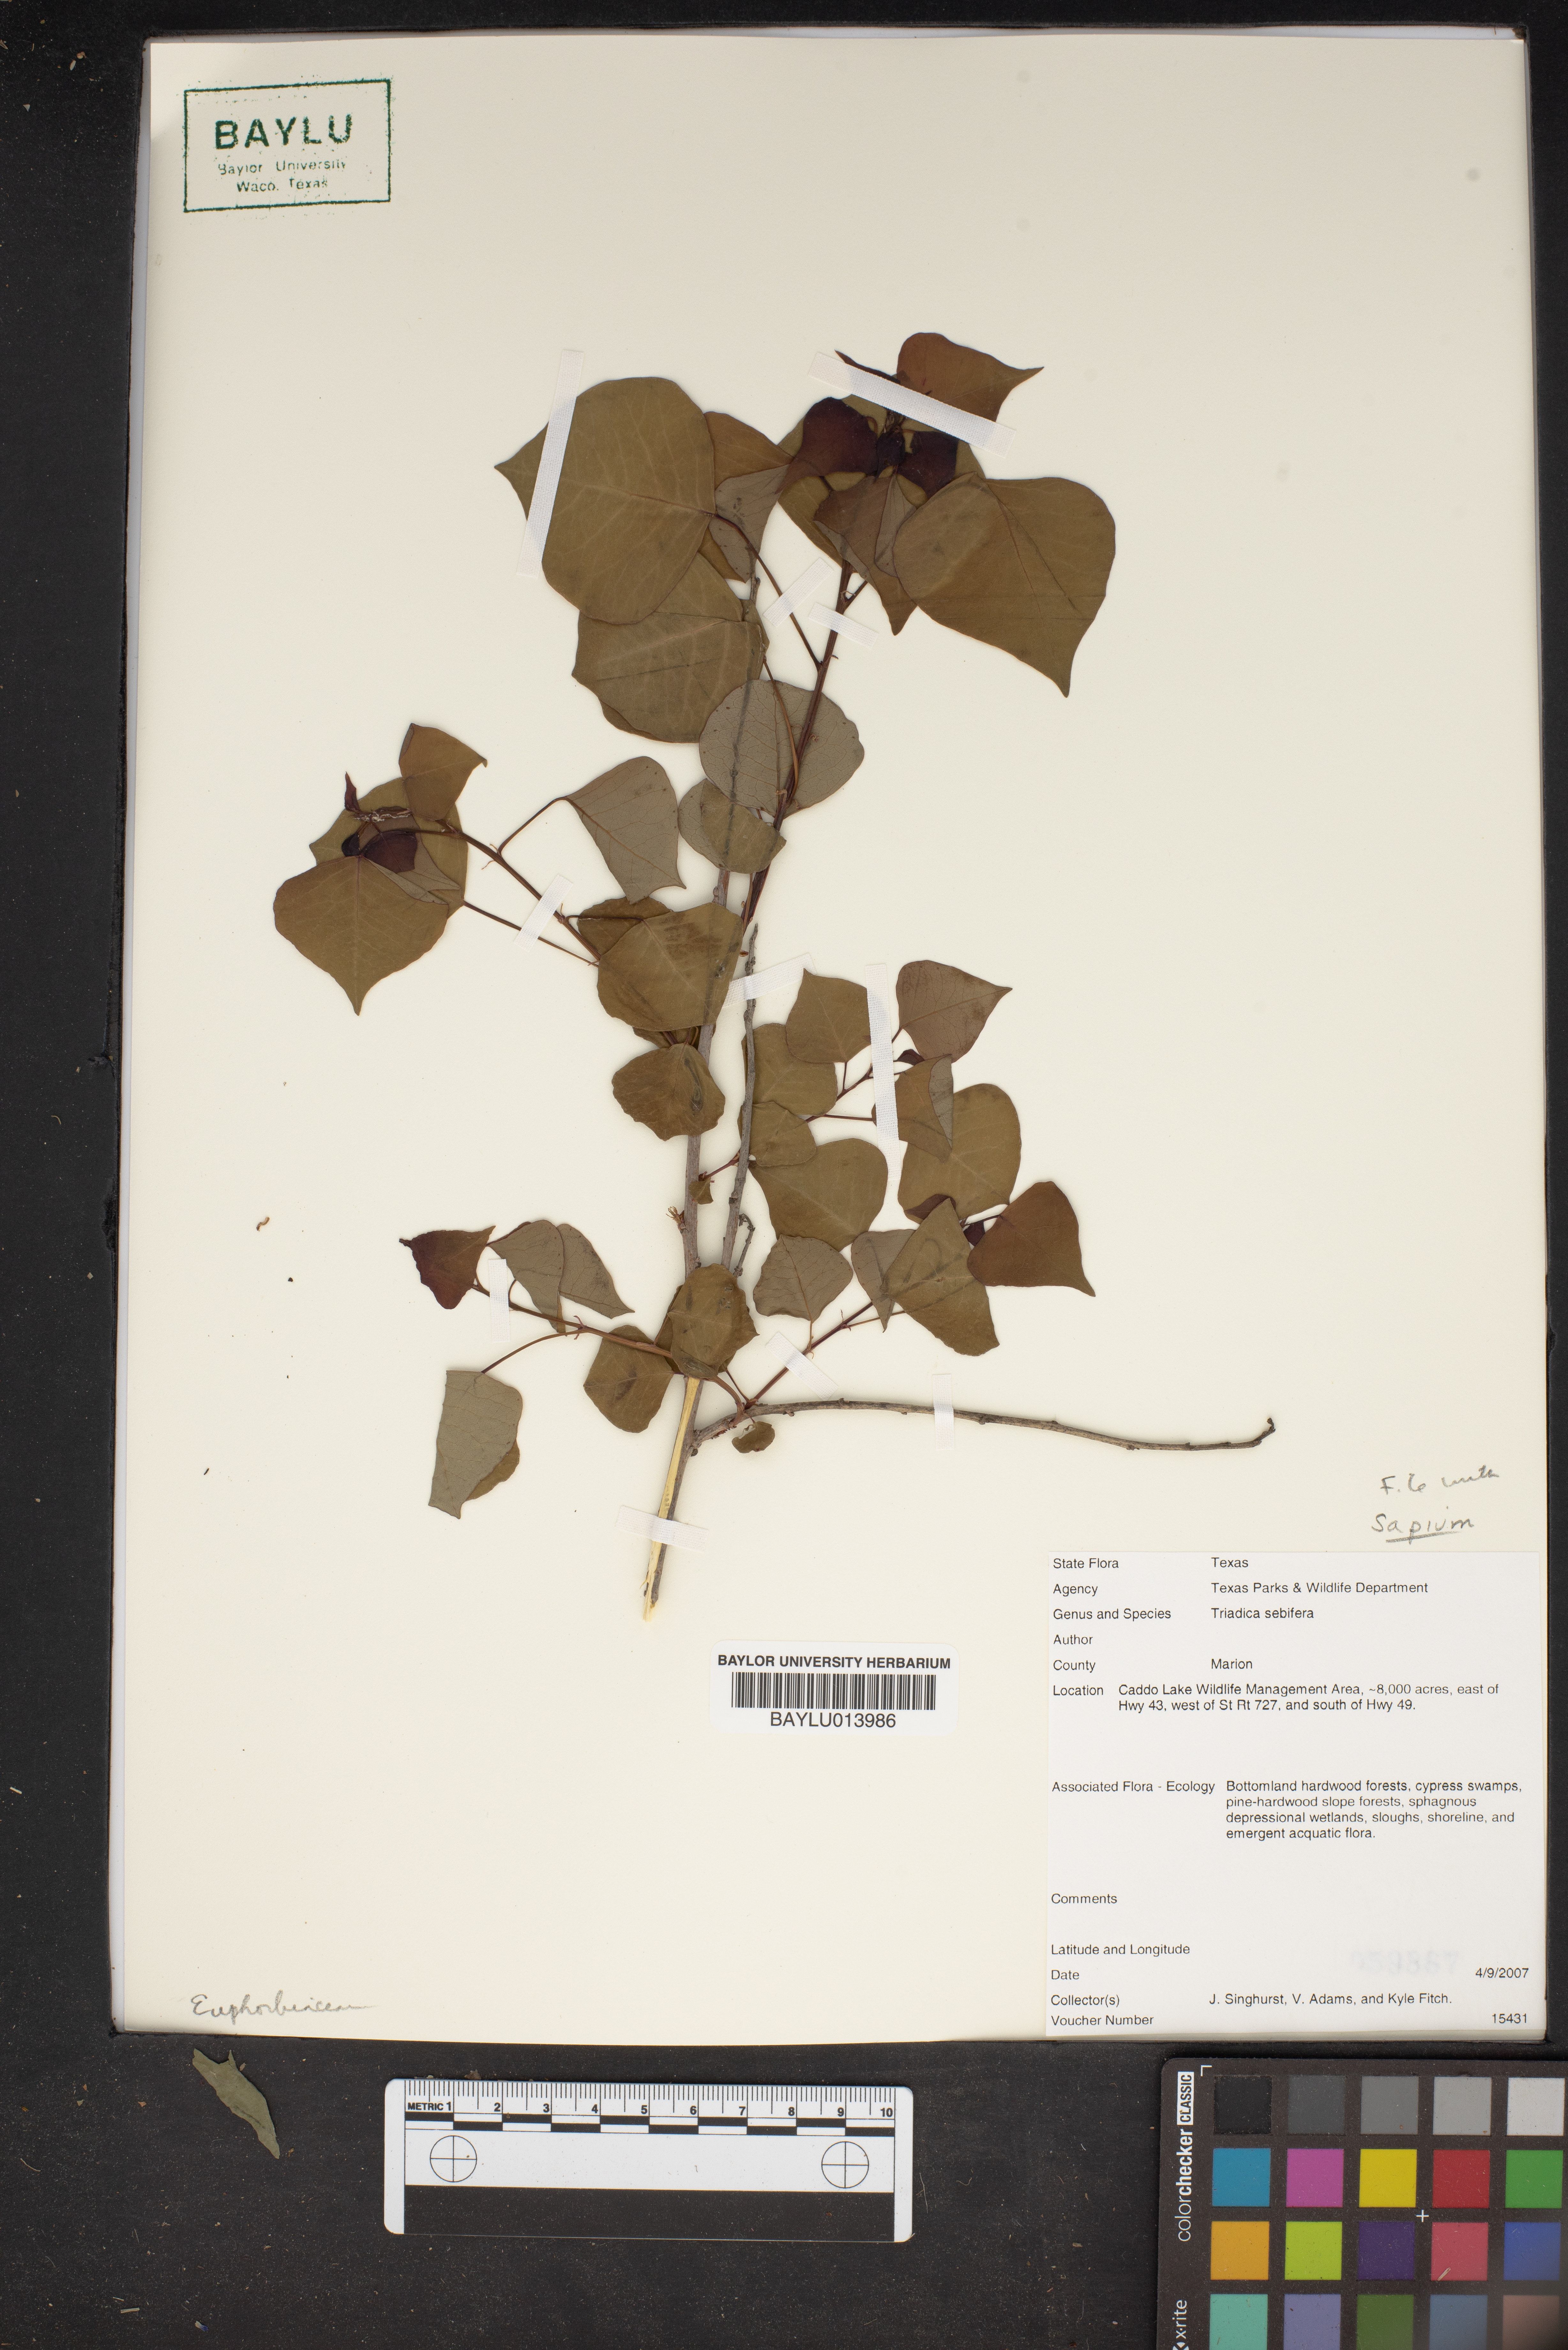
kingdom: Plantae
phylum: Tracheophyta
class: Magnoliopsida
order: Malpighiales
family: Euphorbiaceae
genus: Triadica
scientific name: Triadica sebifera
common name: Chinese tallow
